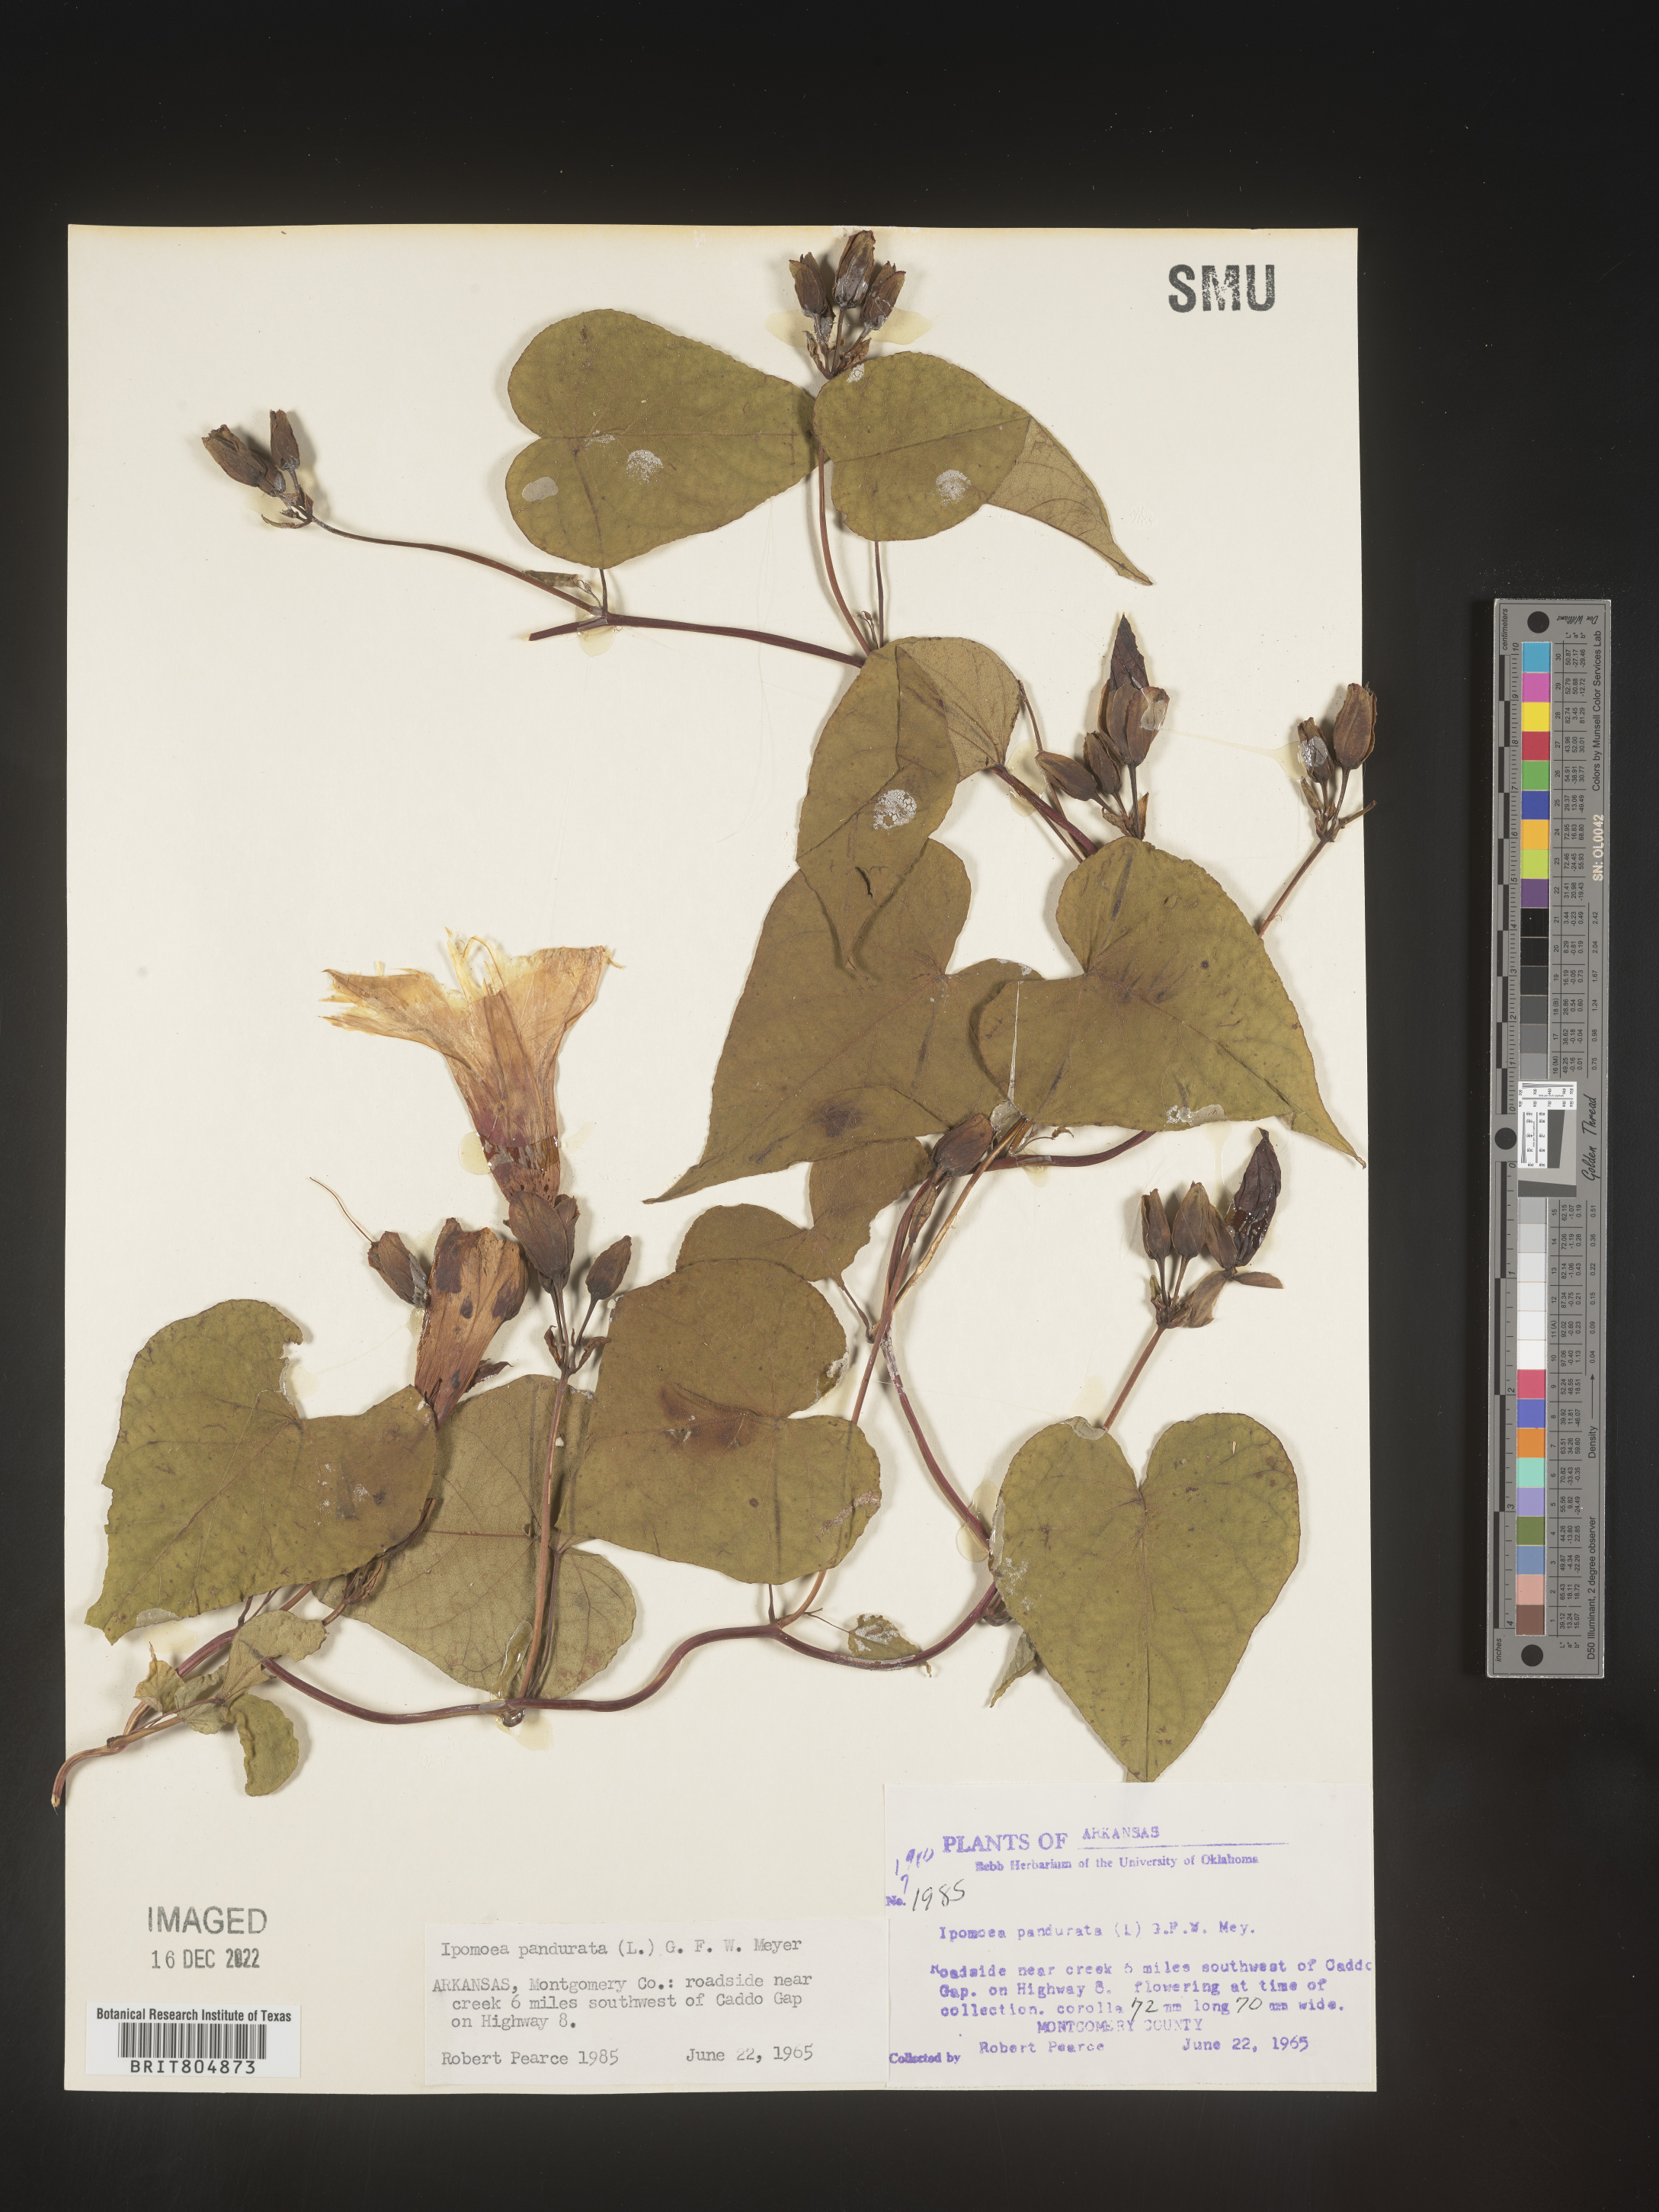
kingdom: Plantae
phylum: Tracheophyta
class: Magnoliopsida
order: Solanales
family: Convolvulaceae
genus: Ipomoea
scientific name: Ipomoea pandurata
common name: Man-of-the-earth
